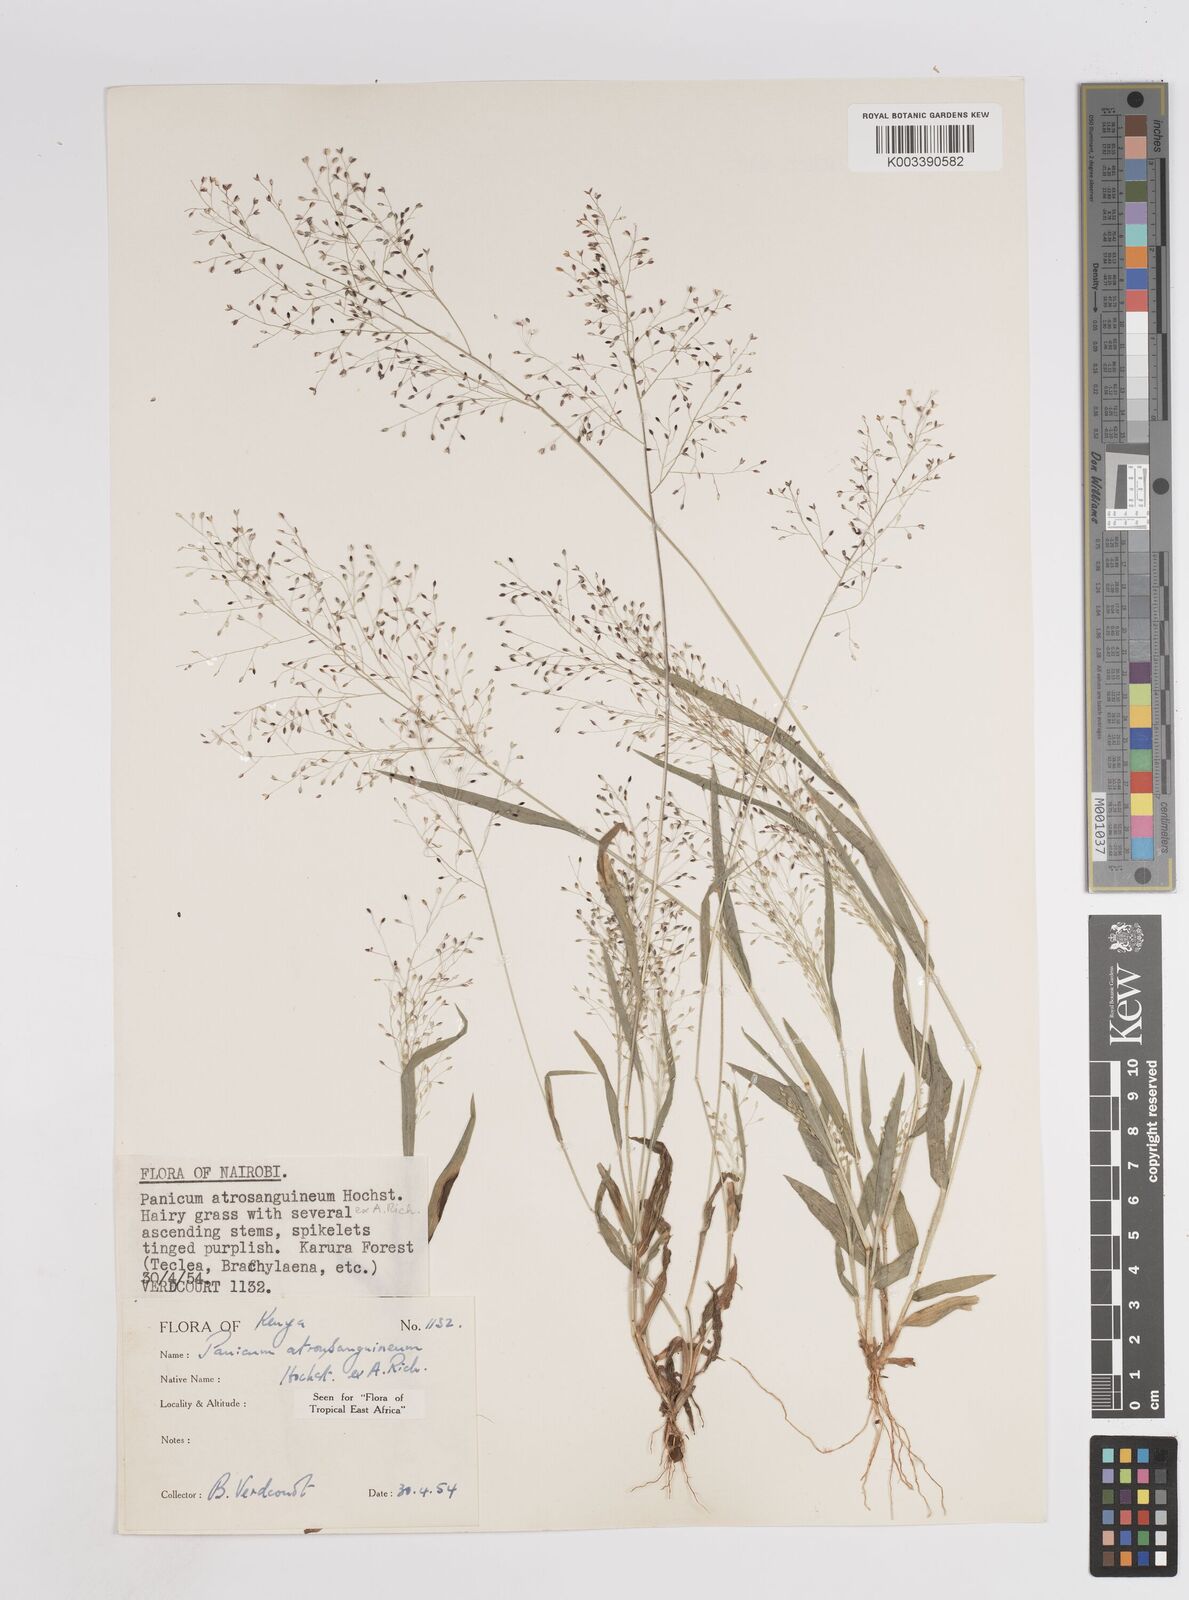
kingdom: Plantae
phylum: Tracheophyta
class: Liliopsida
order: Poales
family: Poaceae
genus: Panicum
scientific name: Panicum atrosanguineum
